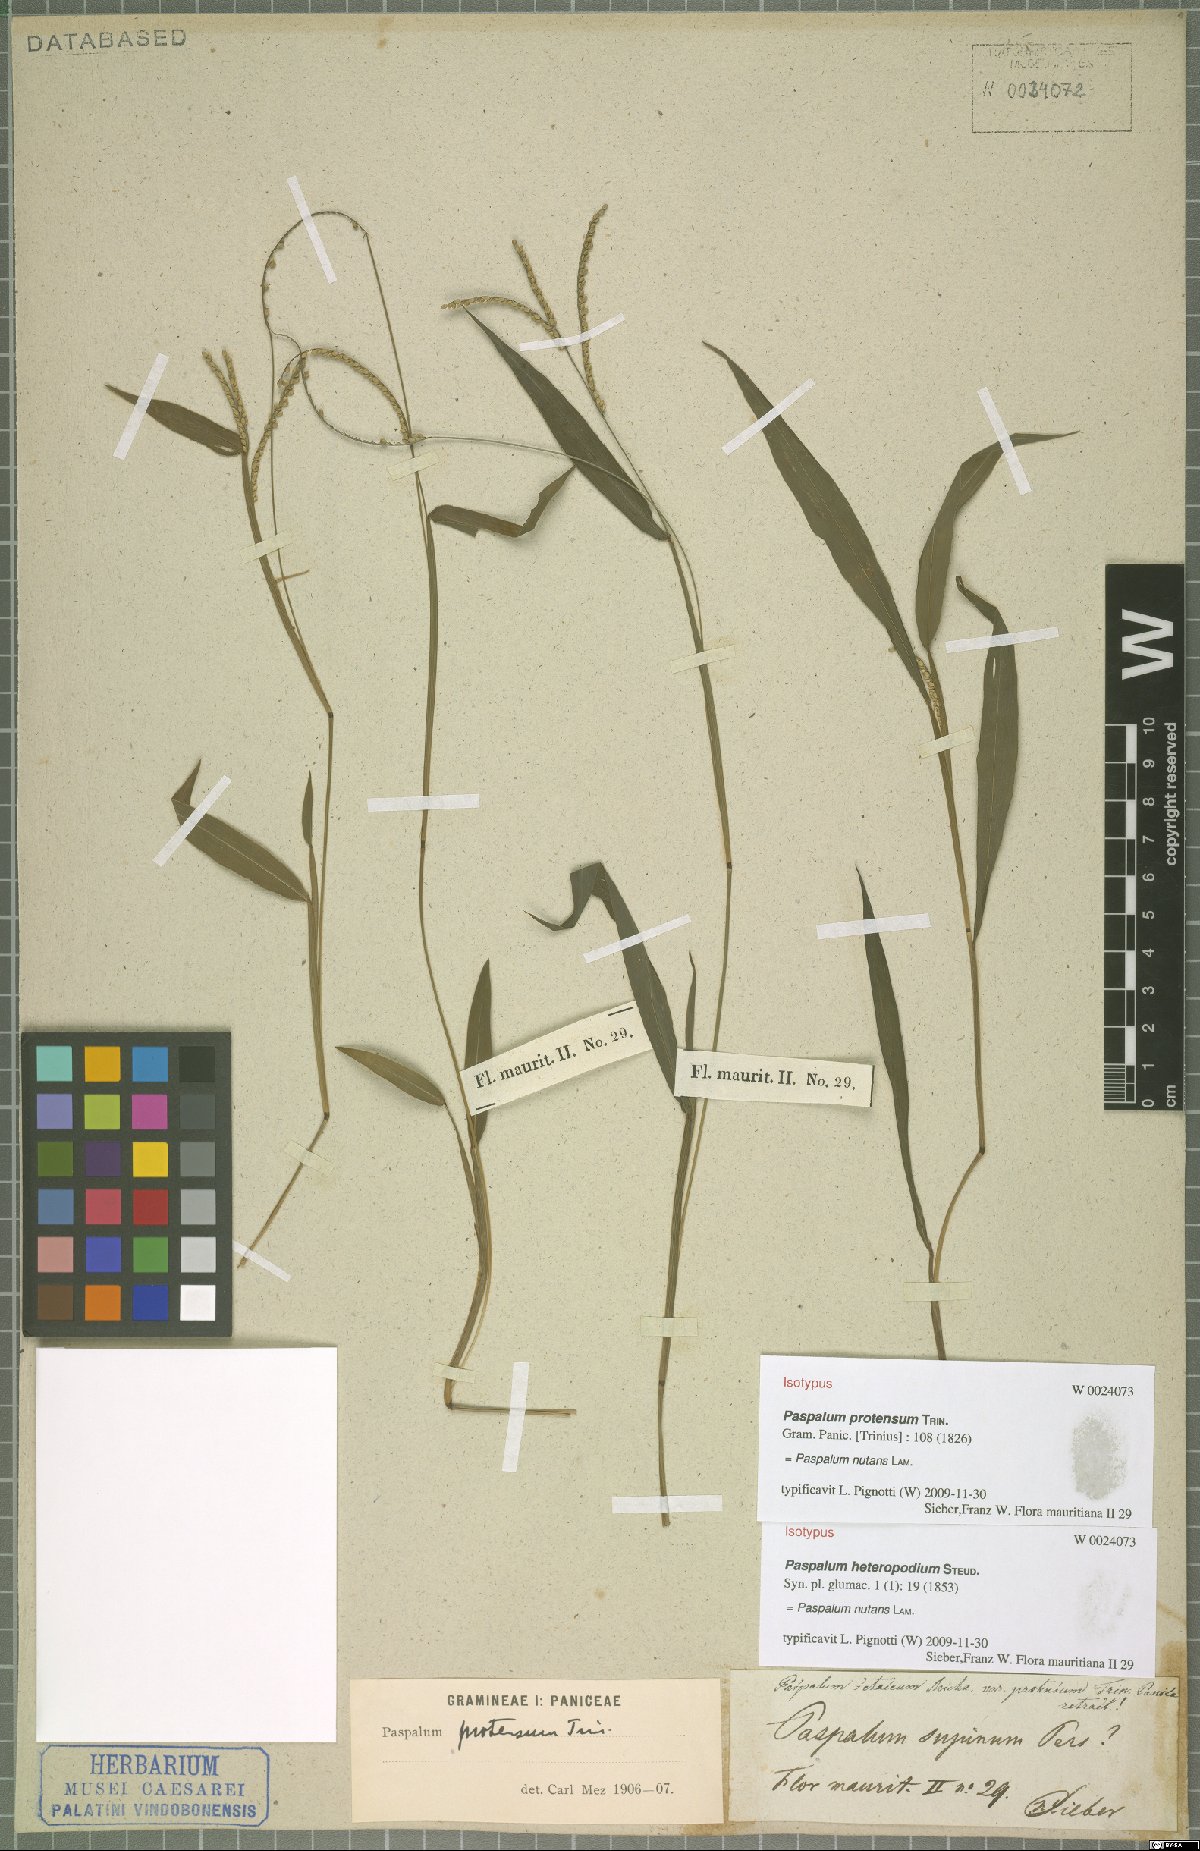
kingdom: Plantae
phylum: Tracheophyta
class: Liliopsida
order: Poales
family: Poaceae
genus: Paspalum
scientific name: Paspalum nutans
